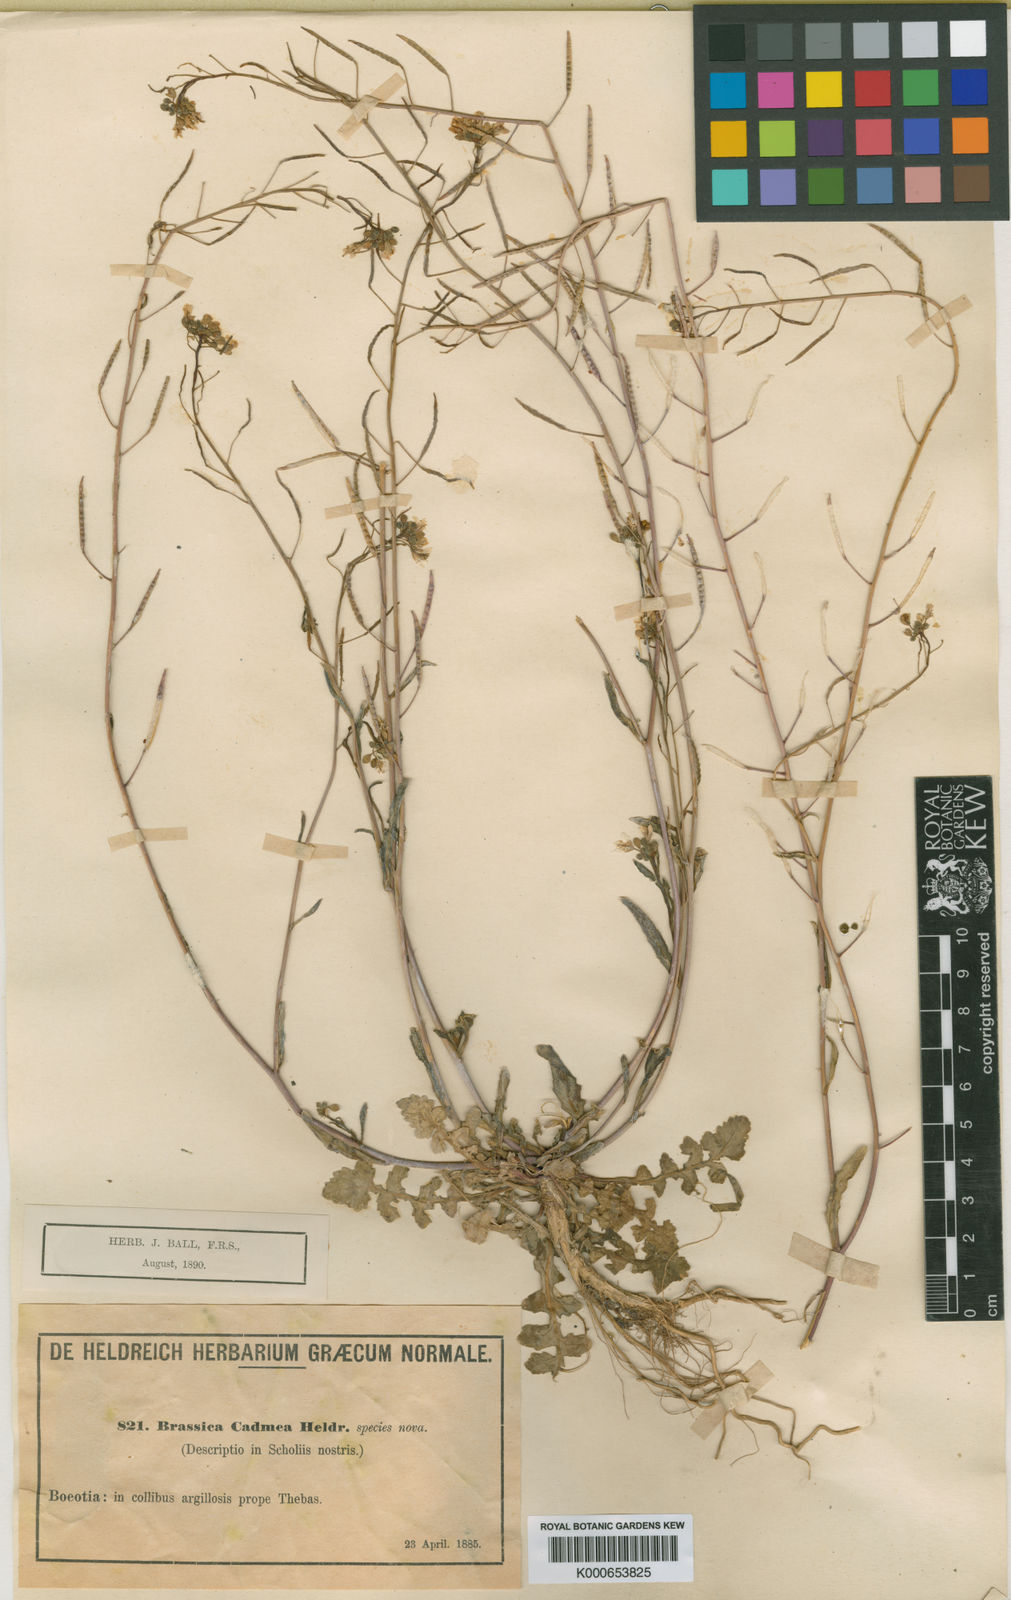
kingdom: Plantae
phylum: Tracheophyta
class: Magnoliopsida
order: Brassicales
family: Brassicaceae
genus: Brassica
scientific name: Brassica cadmea
